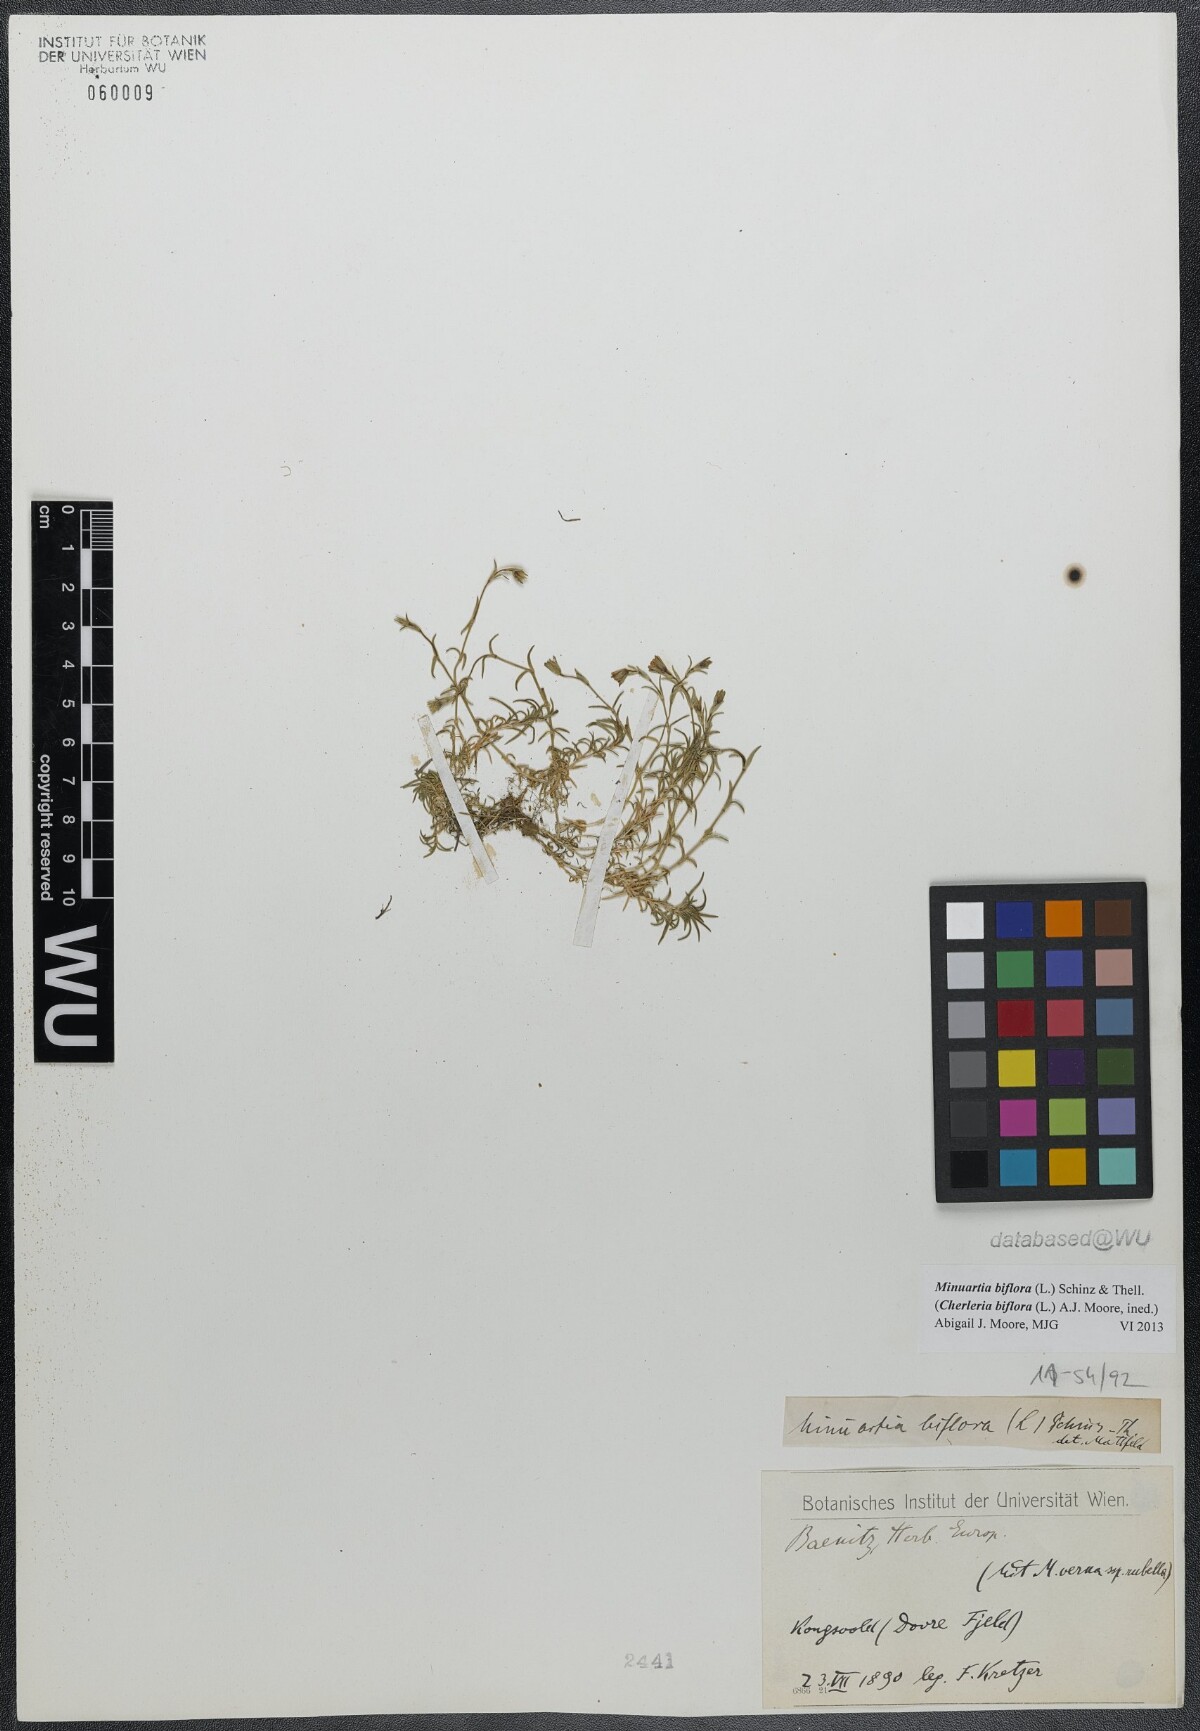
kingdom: Plantae
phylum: Tracheophyta
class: Magnoliopsida
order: Caryophyllales
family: Caryophyllaceae
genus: Cherleria
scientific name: Cherleria biflora
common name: Mountain sandwort
